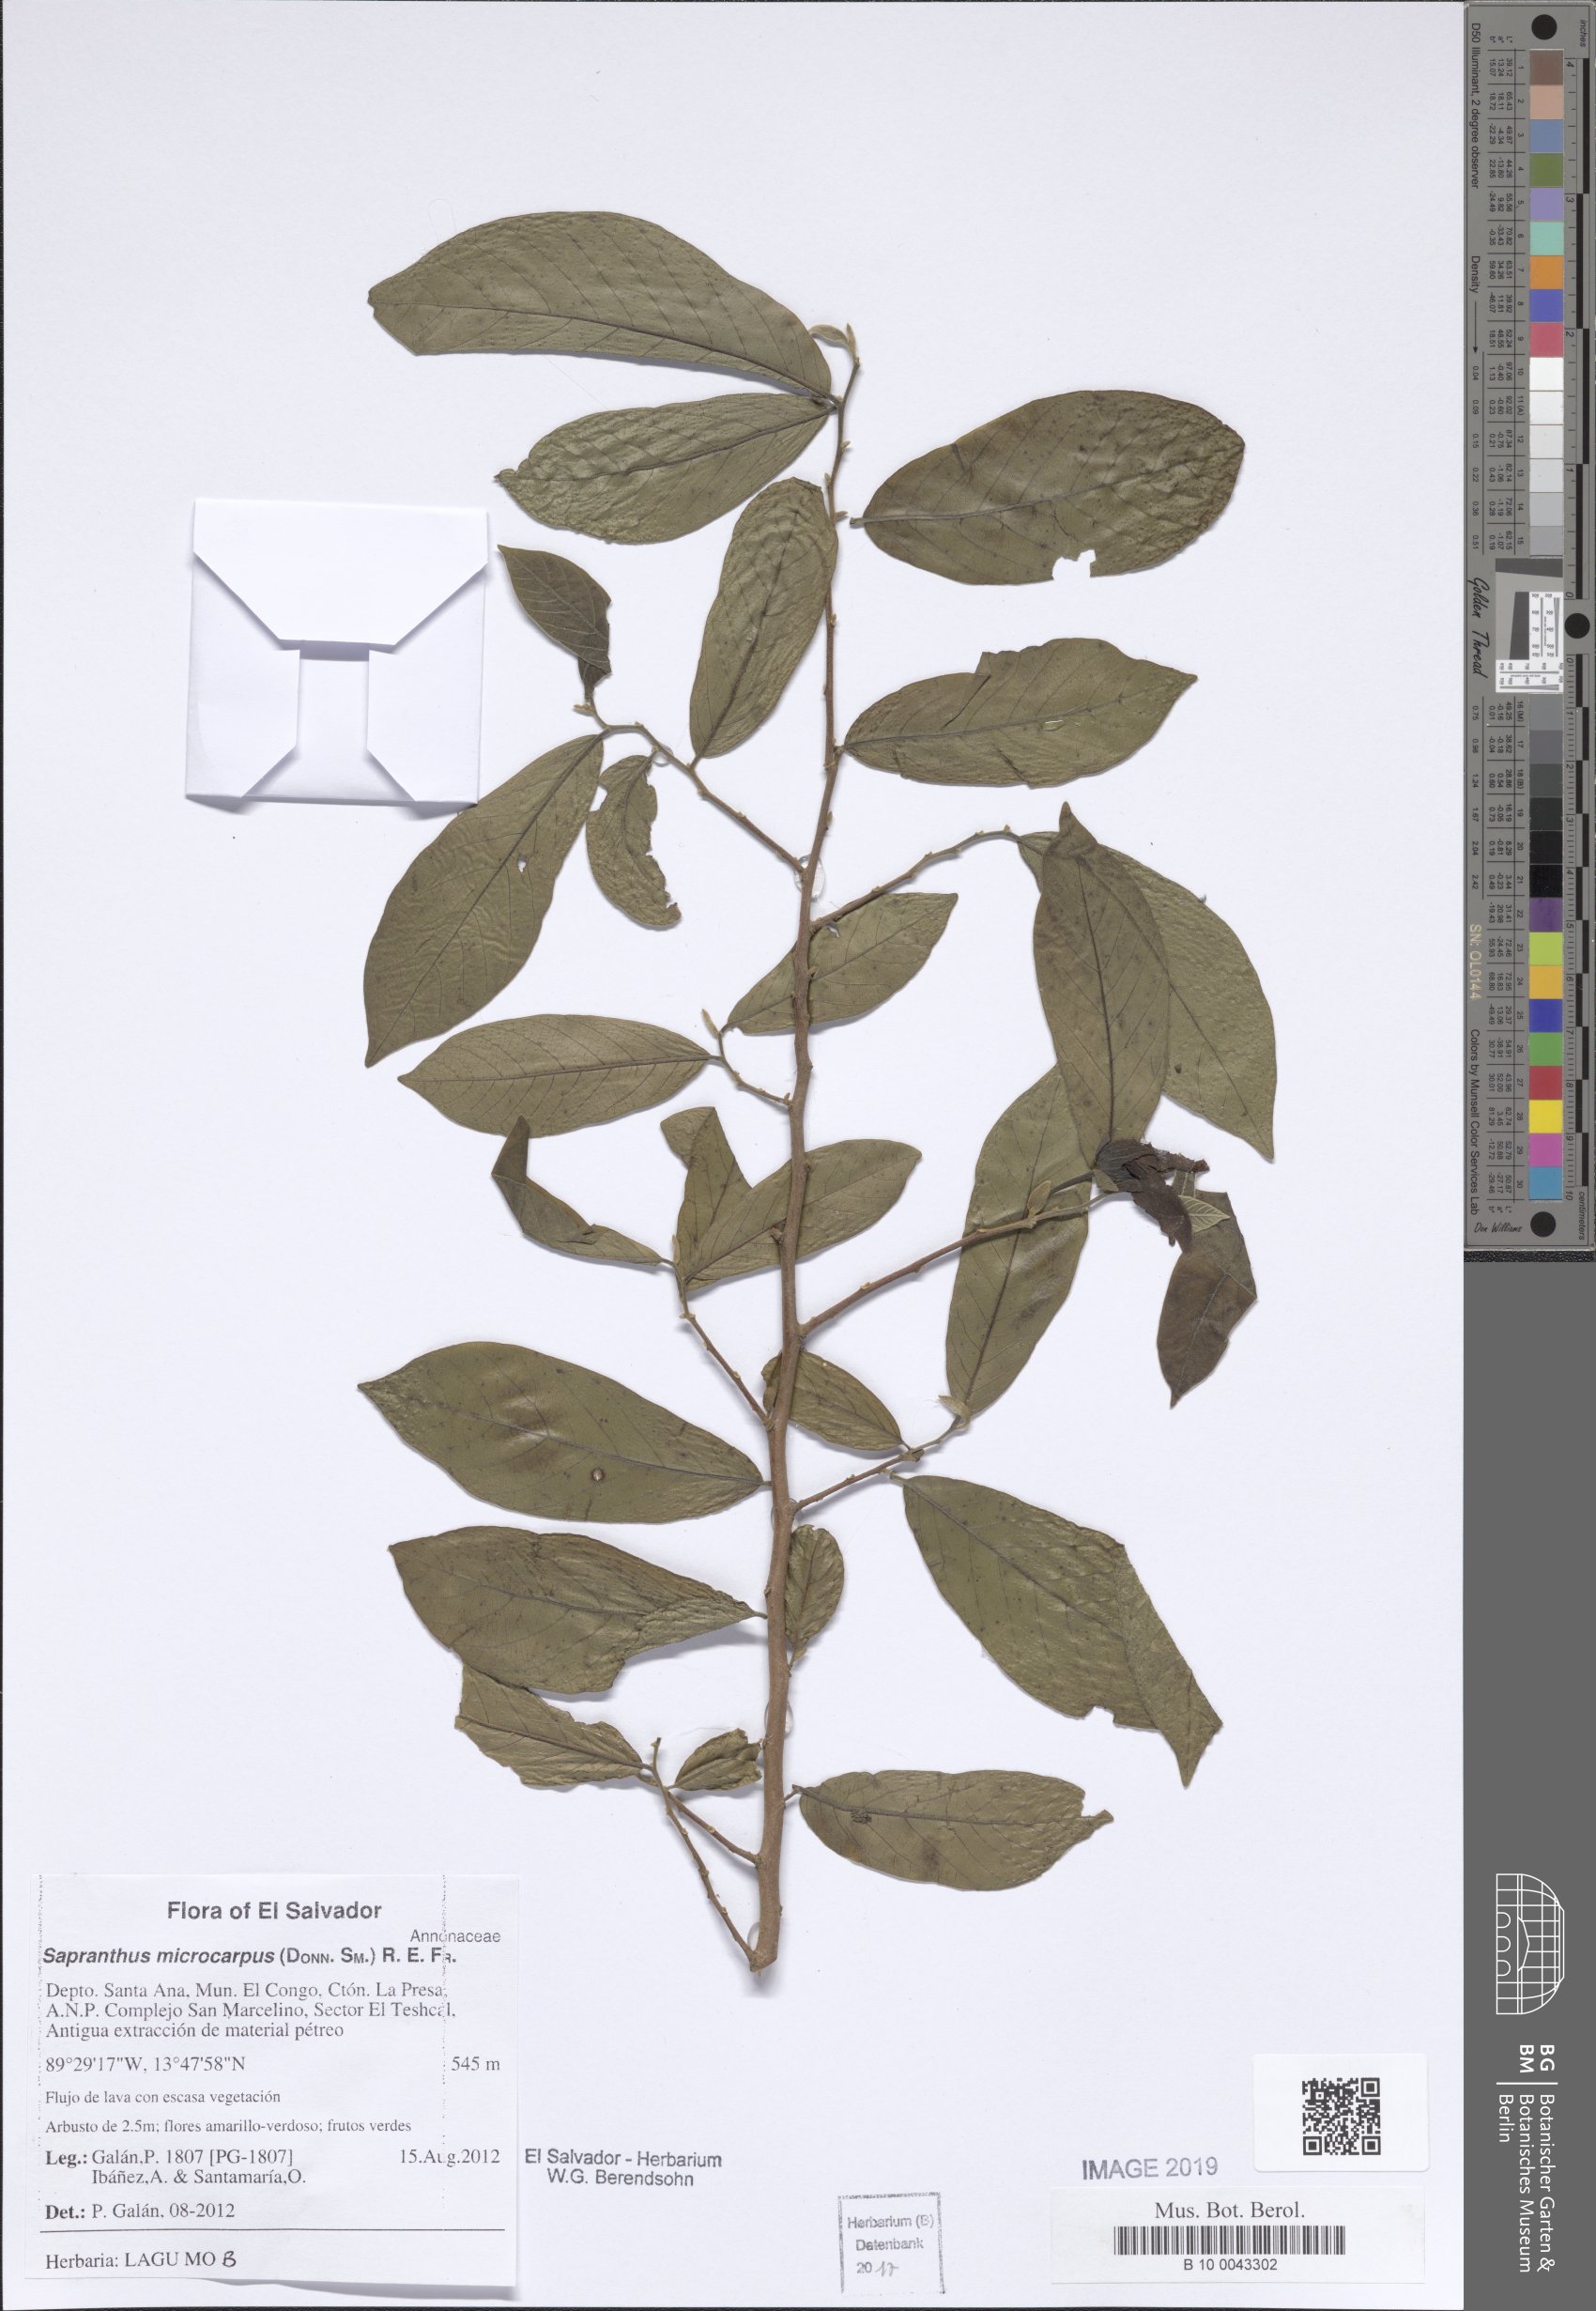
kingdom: Plantae
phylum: Tracheophyta
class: Magnoliopsida
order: Magnoliales
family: Annonaceae
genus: Sapranthus
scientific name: Sapranthus microcarpus
